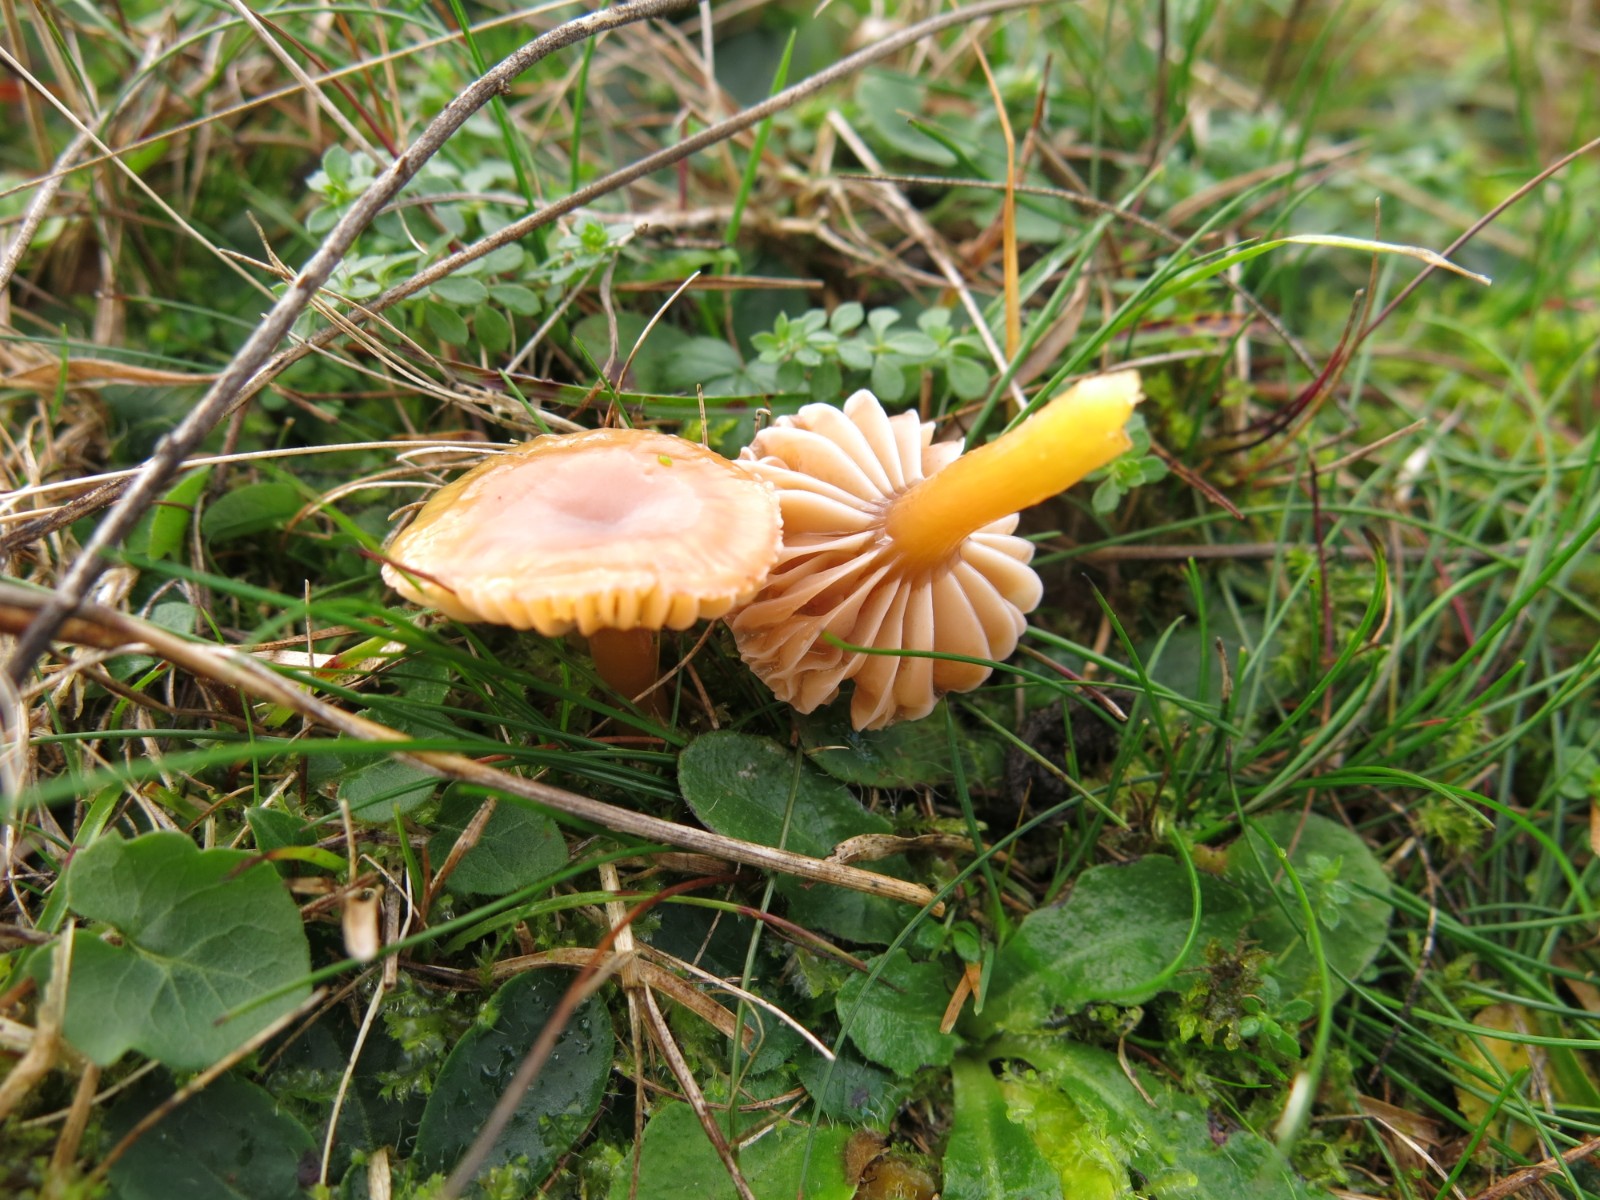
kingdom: Fungi
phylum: Basidiomycota
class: Agaricomycetes
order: Agaricales
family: Hygrophoraceae
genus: Gliophorus
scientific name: Gliophorus psittacinus
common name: papegøje-vokshat
